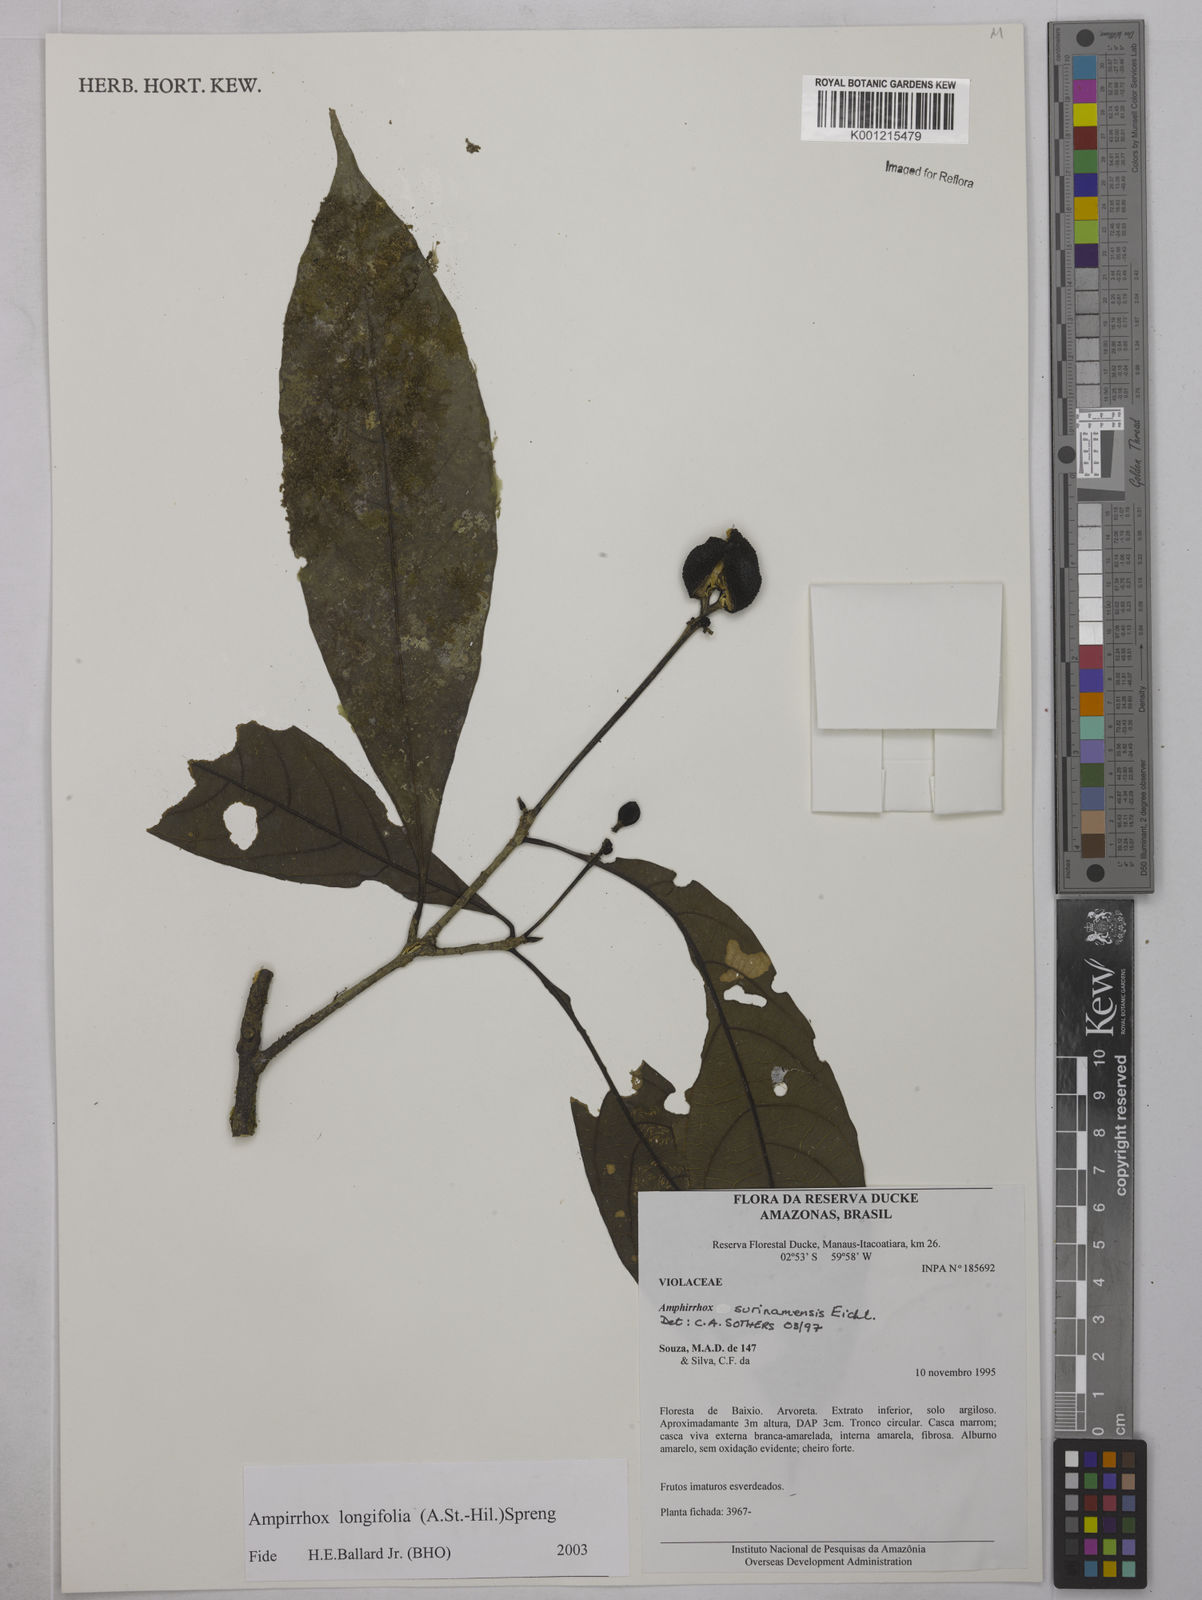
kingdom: Plantae
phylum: Tracheophyta
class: Magnoliopsida
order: Malpighiales
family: Violaceae
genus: Amphirrhox
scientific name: Amphirrhox longifolia
